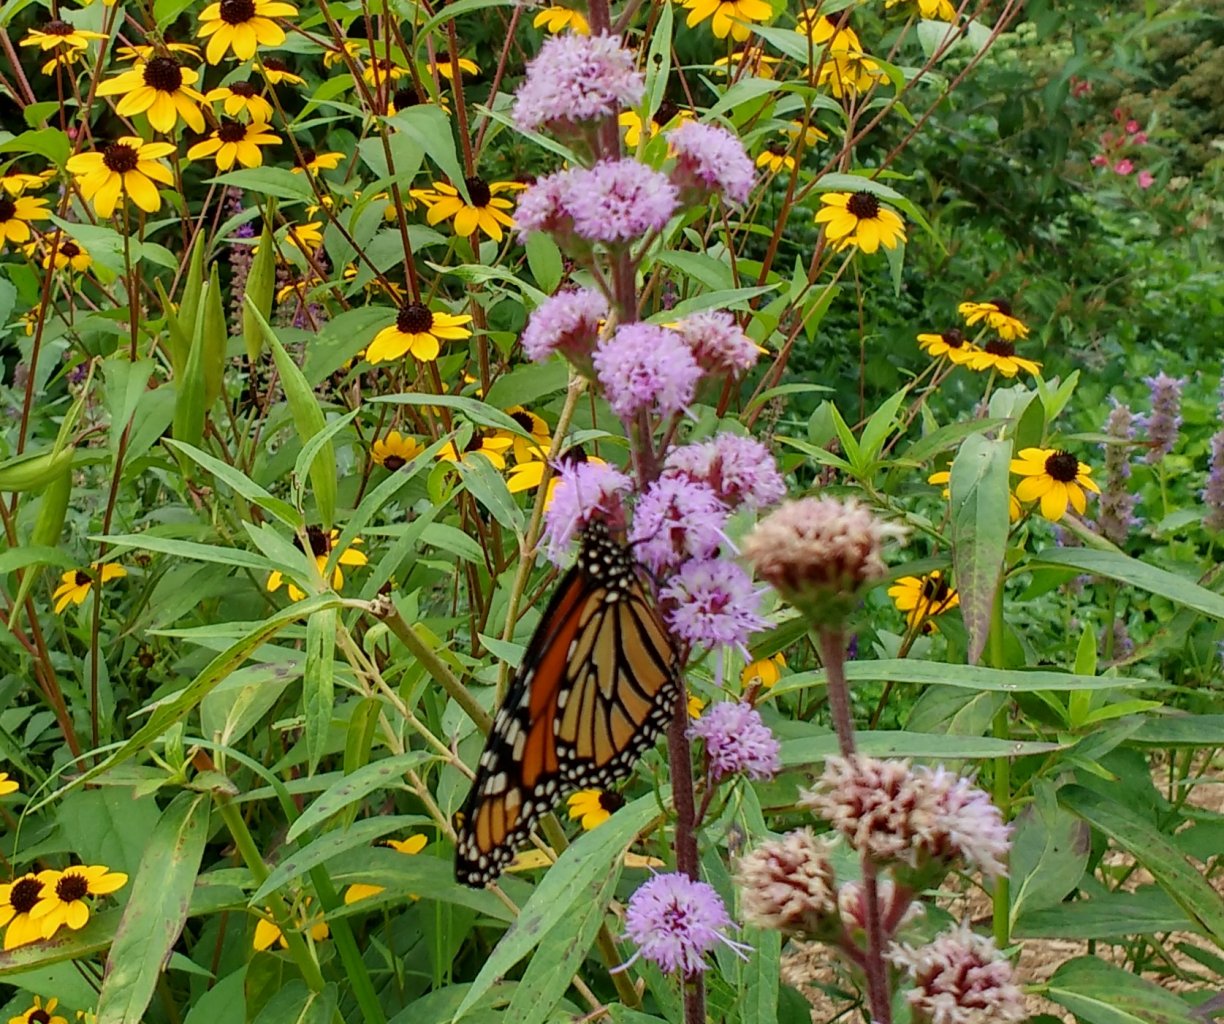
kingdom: Animalia
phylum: Arthropoda
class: Insecta
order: Lepidoptera
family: Nymphalidae
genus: Danaus
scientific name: Danaus plexippus
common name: Monarch
